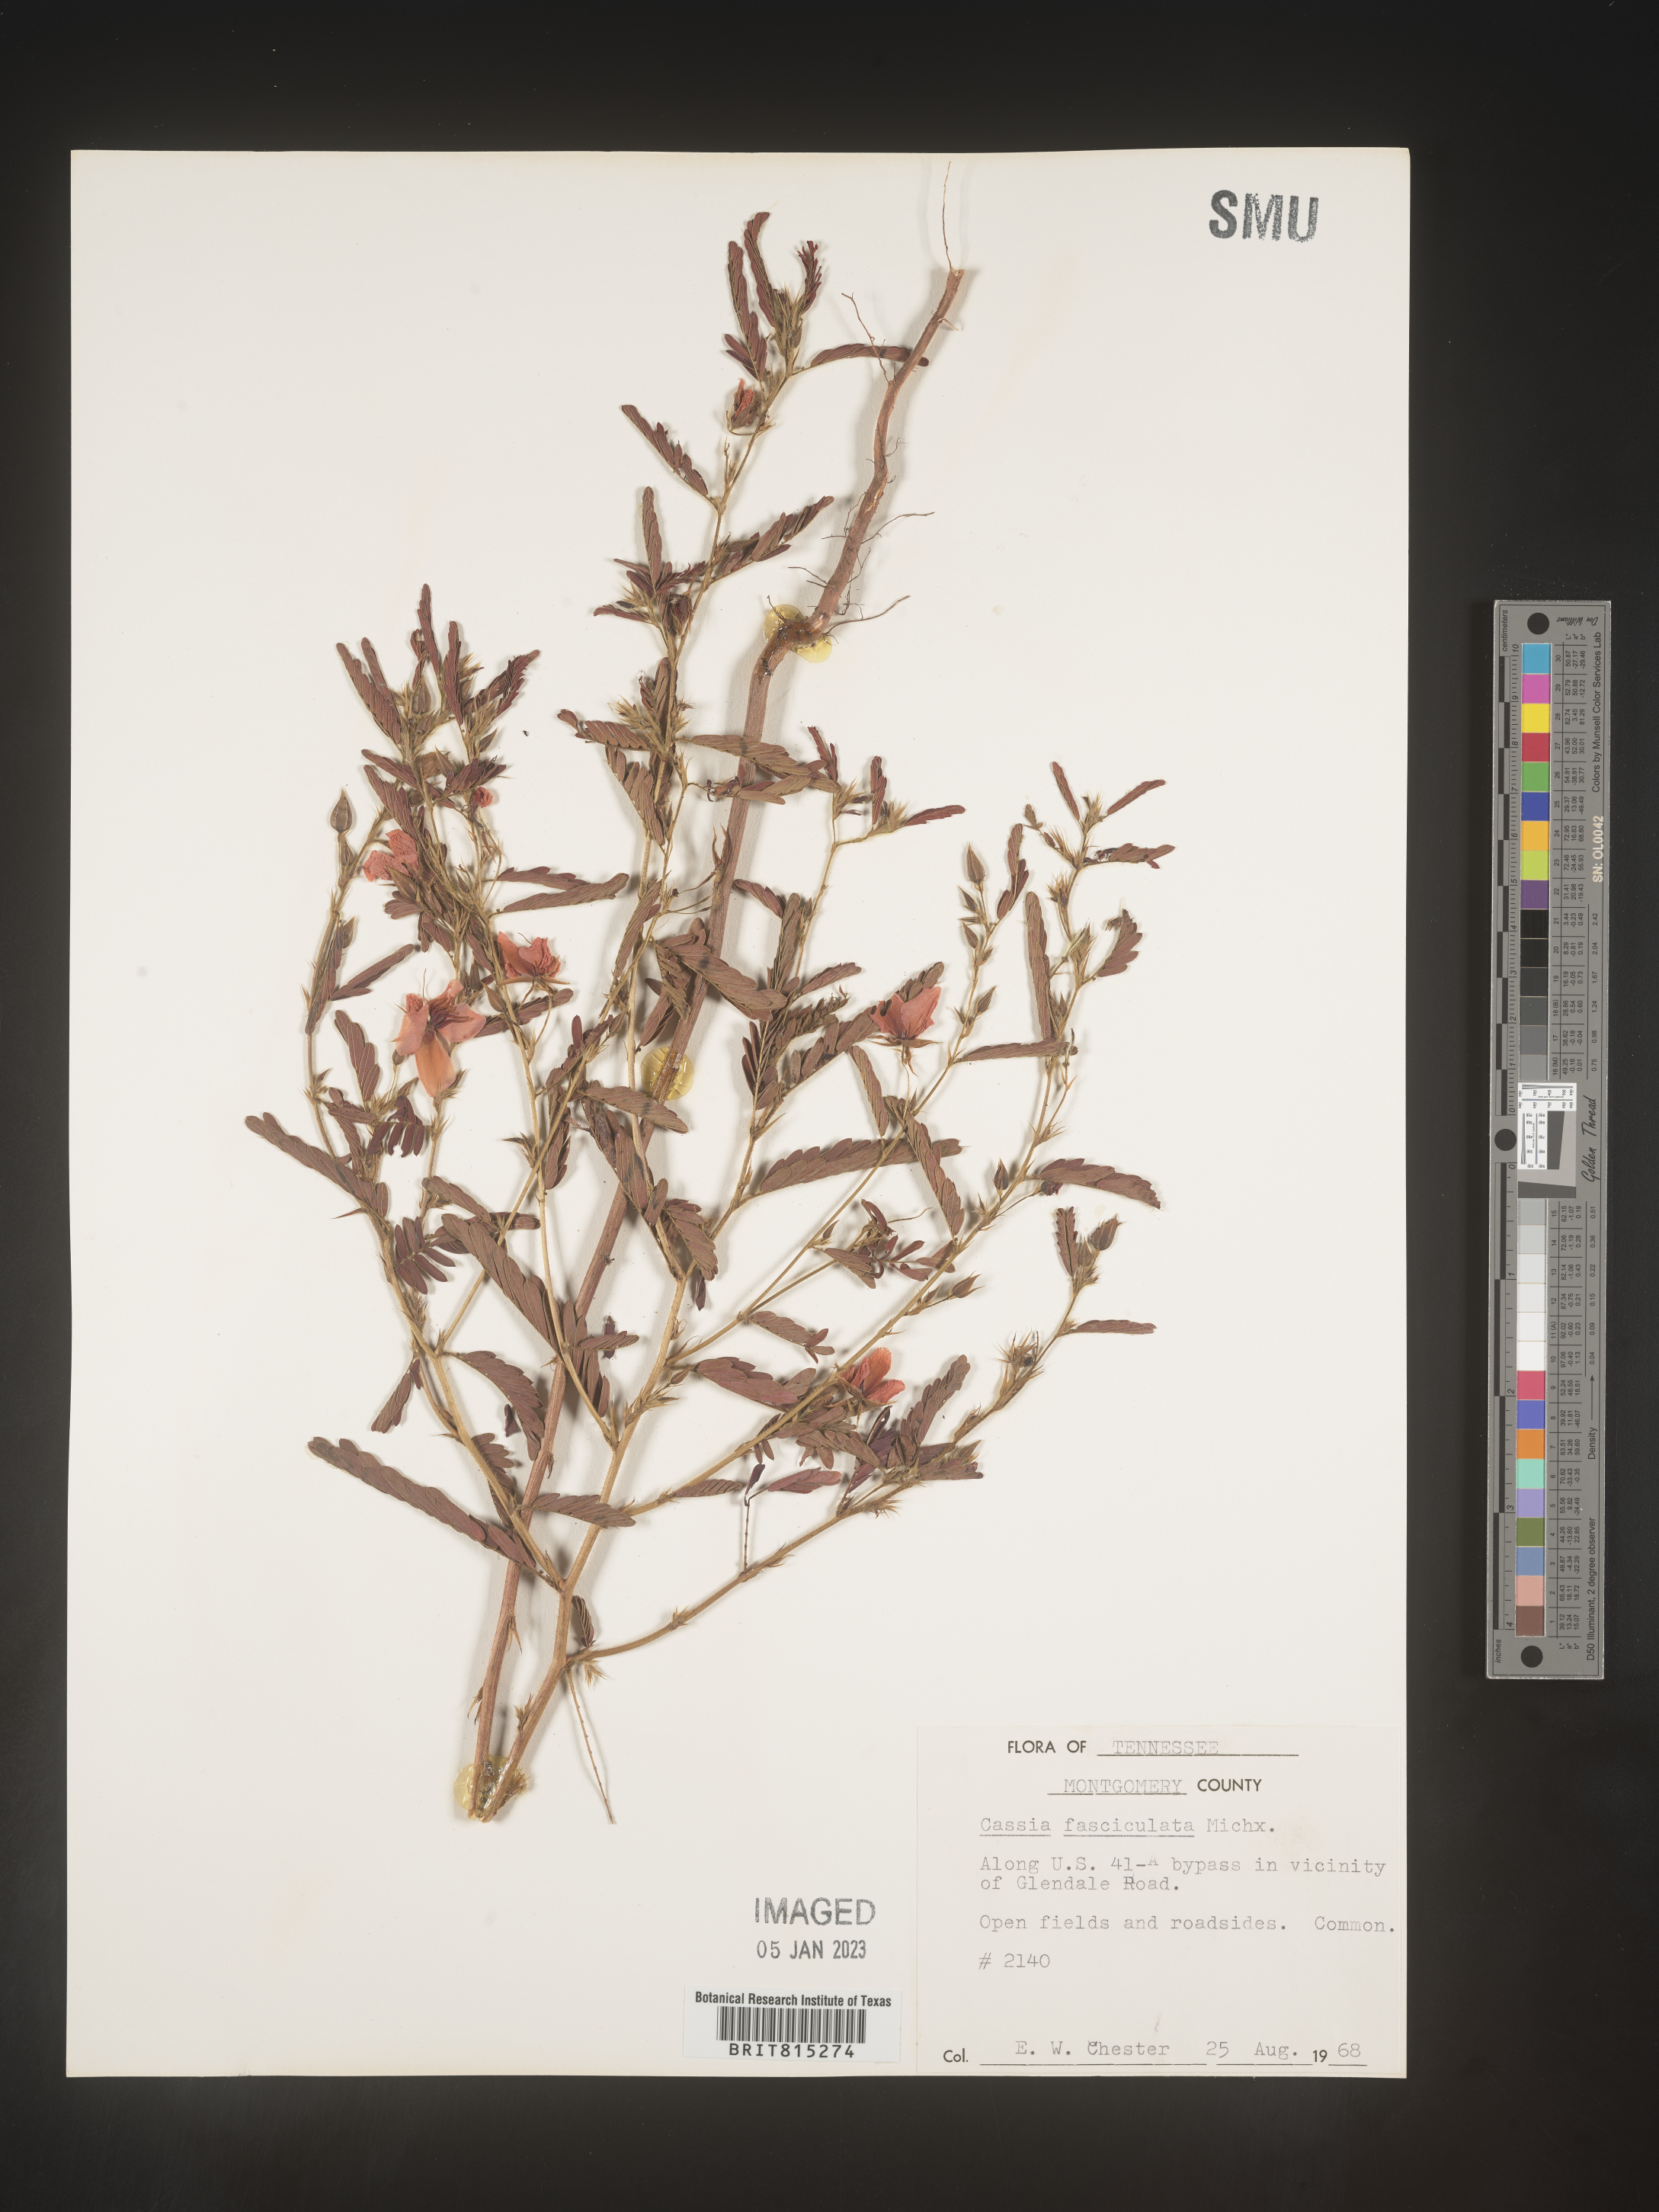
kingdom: Plantae
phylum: Tracheophyta
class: Magnoliopsida
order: Fabales
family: Fabaceae
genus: Chamaecrista
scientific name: Chamaecrista fasciculata
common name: Golden cassia
